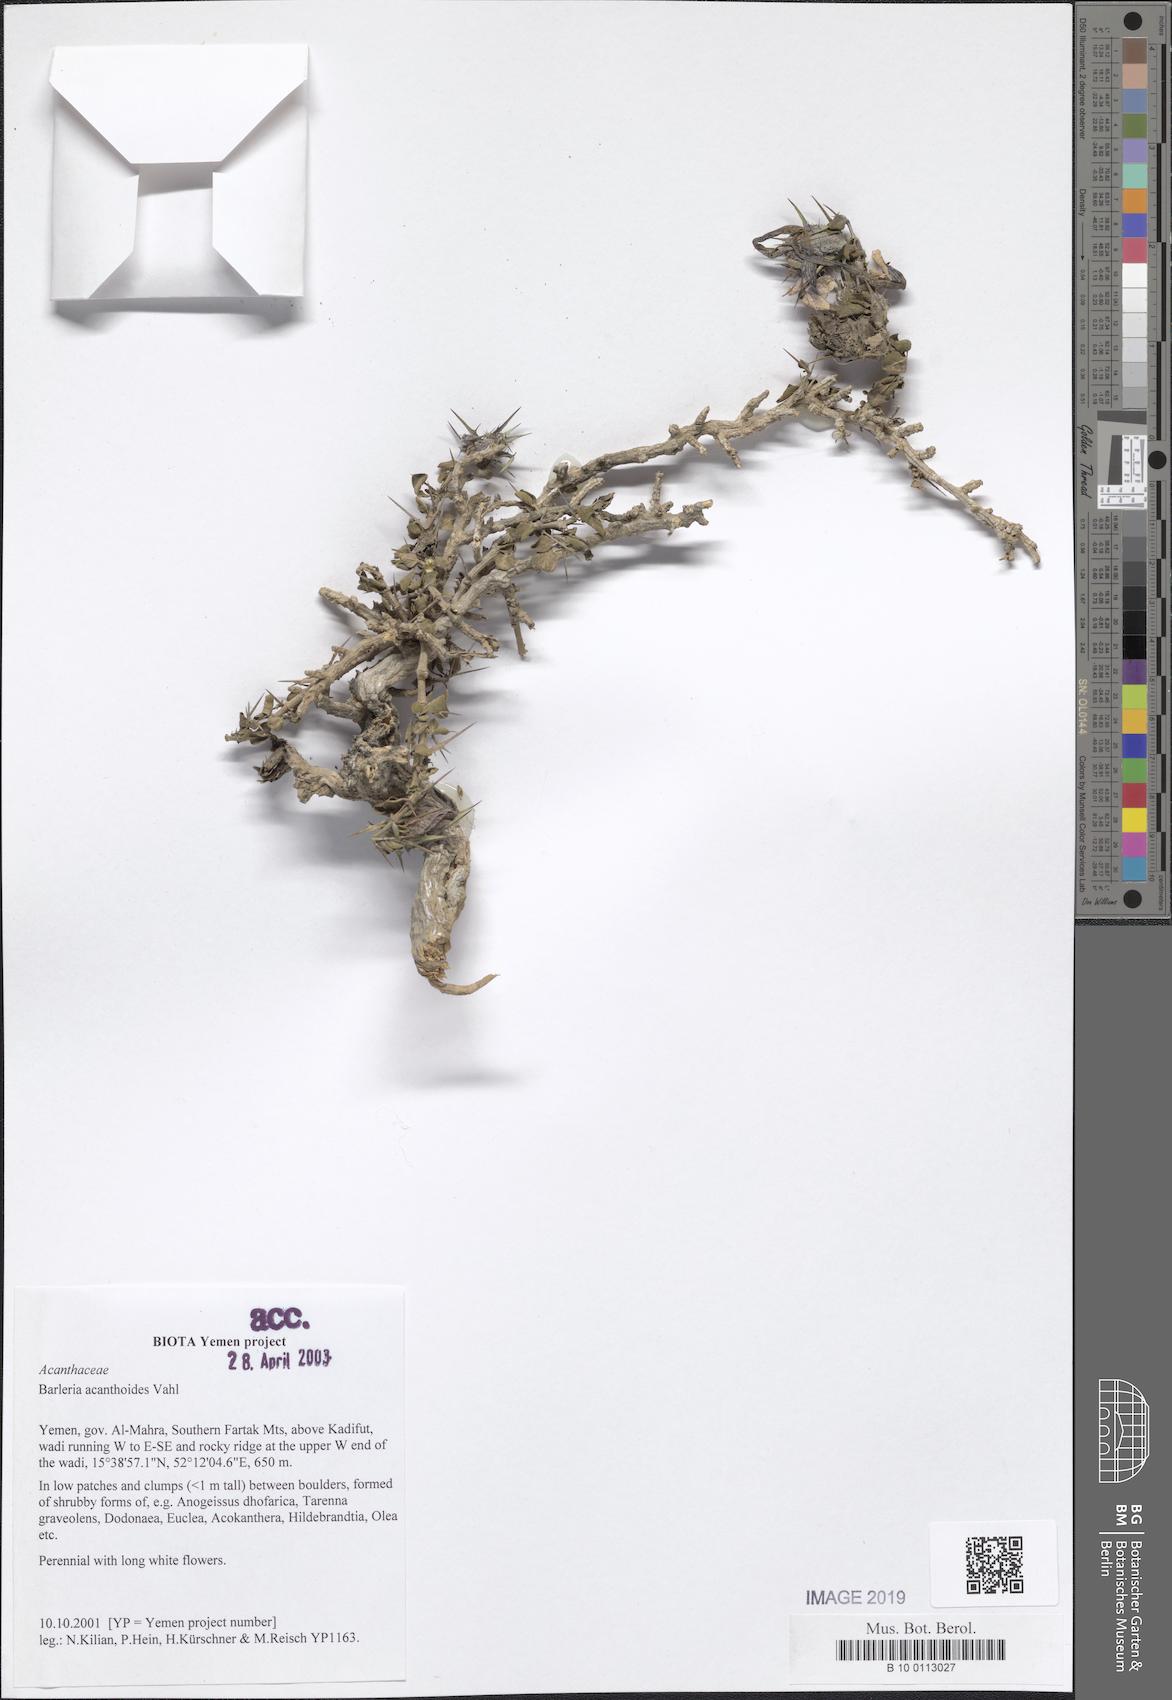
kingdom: Plantae
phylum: Tracheophyta
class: Magnoliopsida
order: Lamiales
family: Acanthaceae
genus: Barleria
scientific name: Barleria acanthoides
